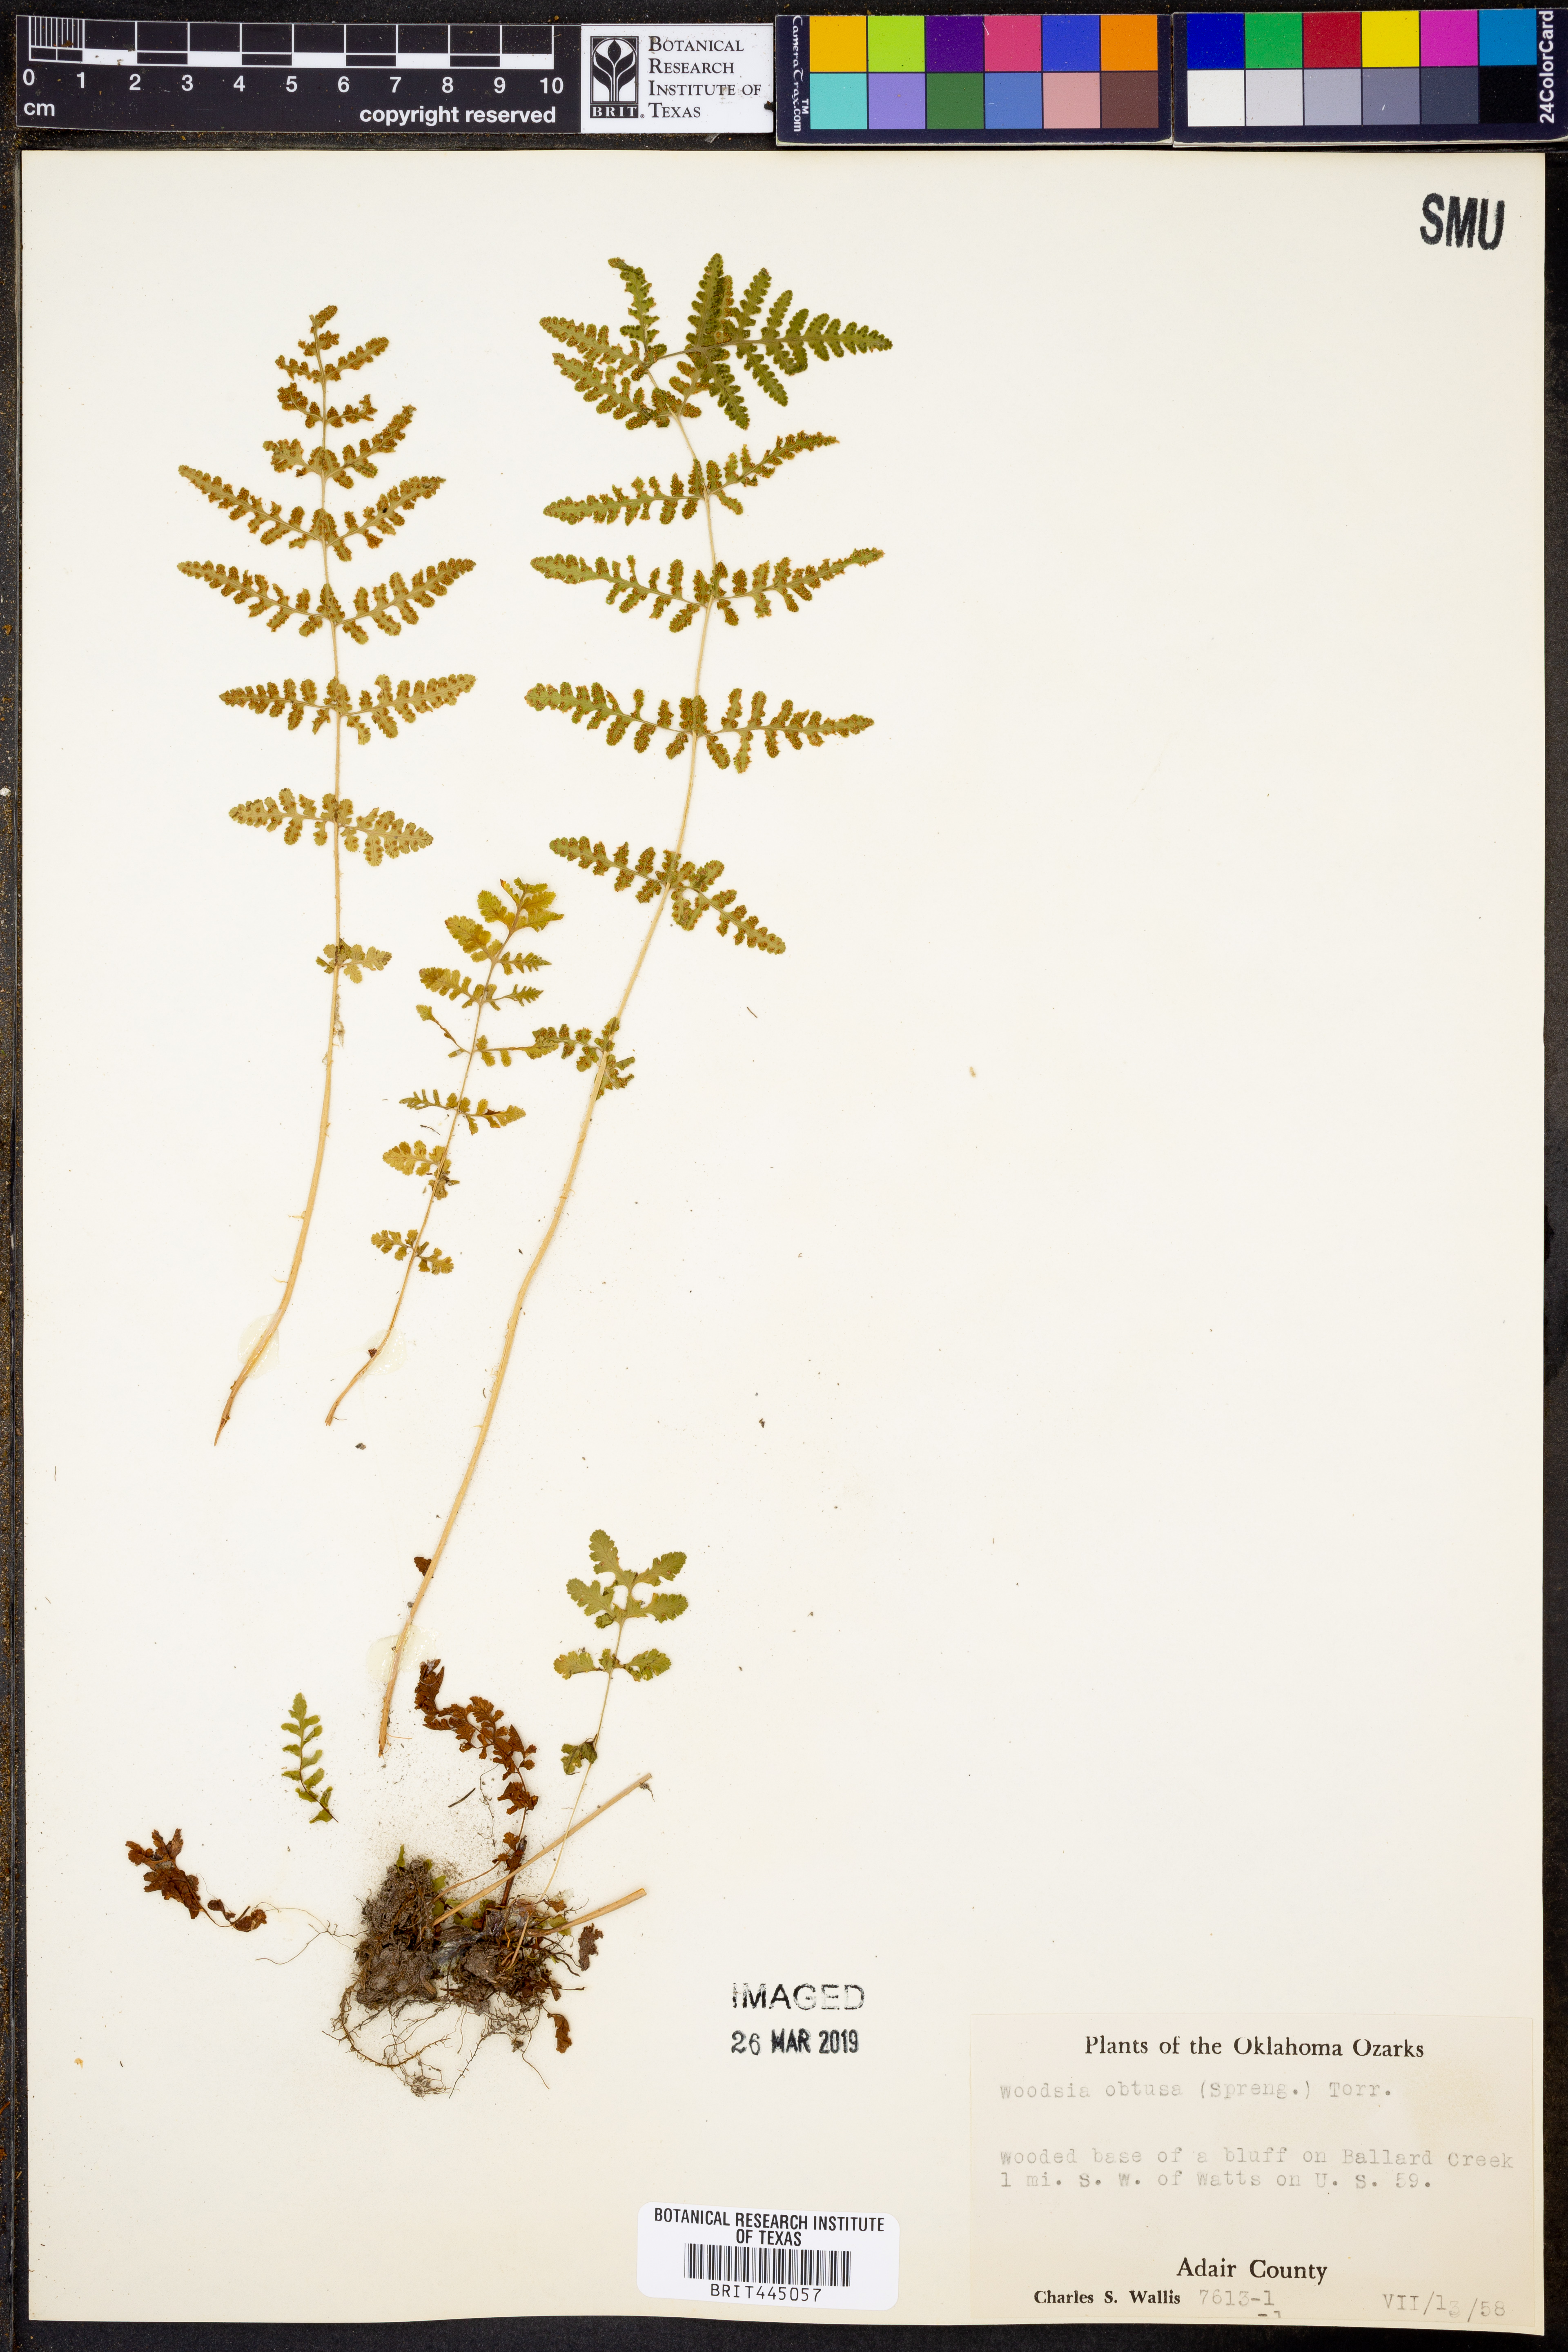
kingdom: Plantae
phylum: Tracheophyta
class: Polypodiopsida
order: Polypodiales
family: Woodsiaceae
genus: Physematium
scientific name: Physematium obtusum
